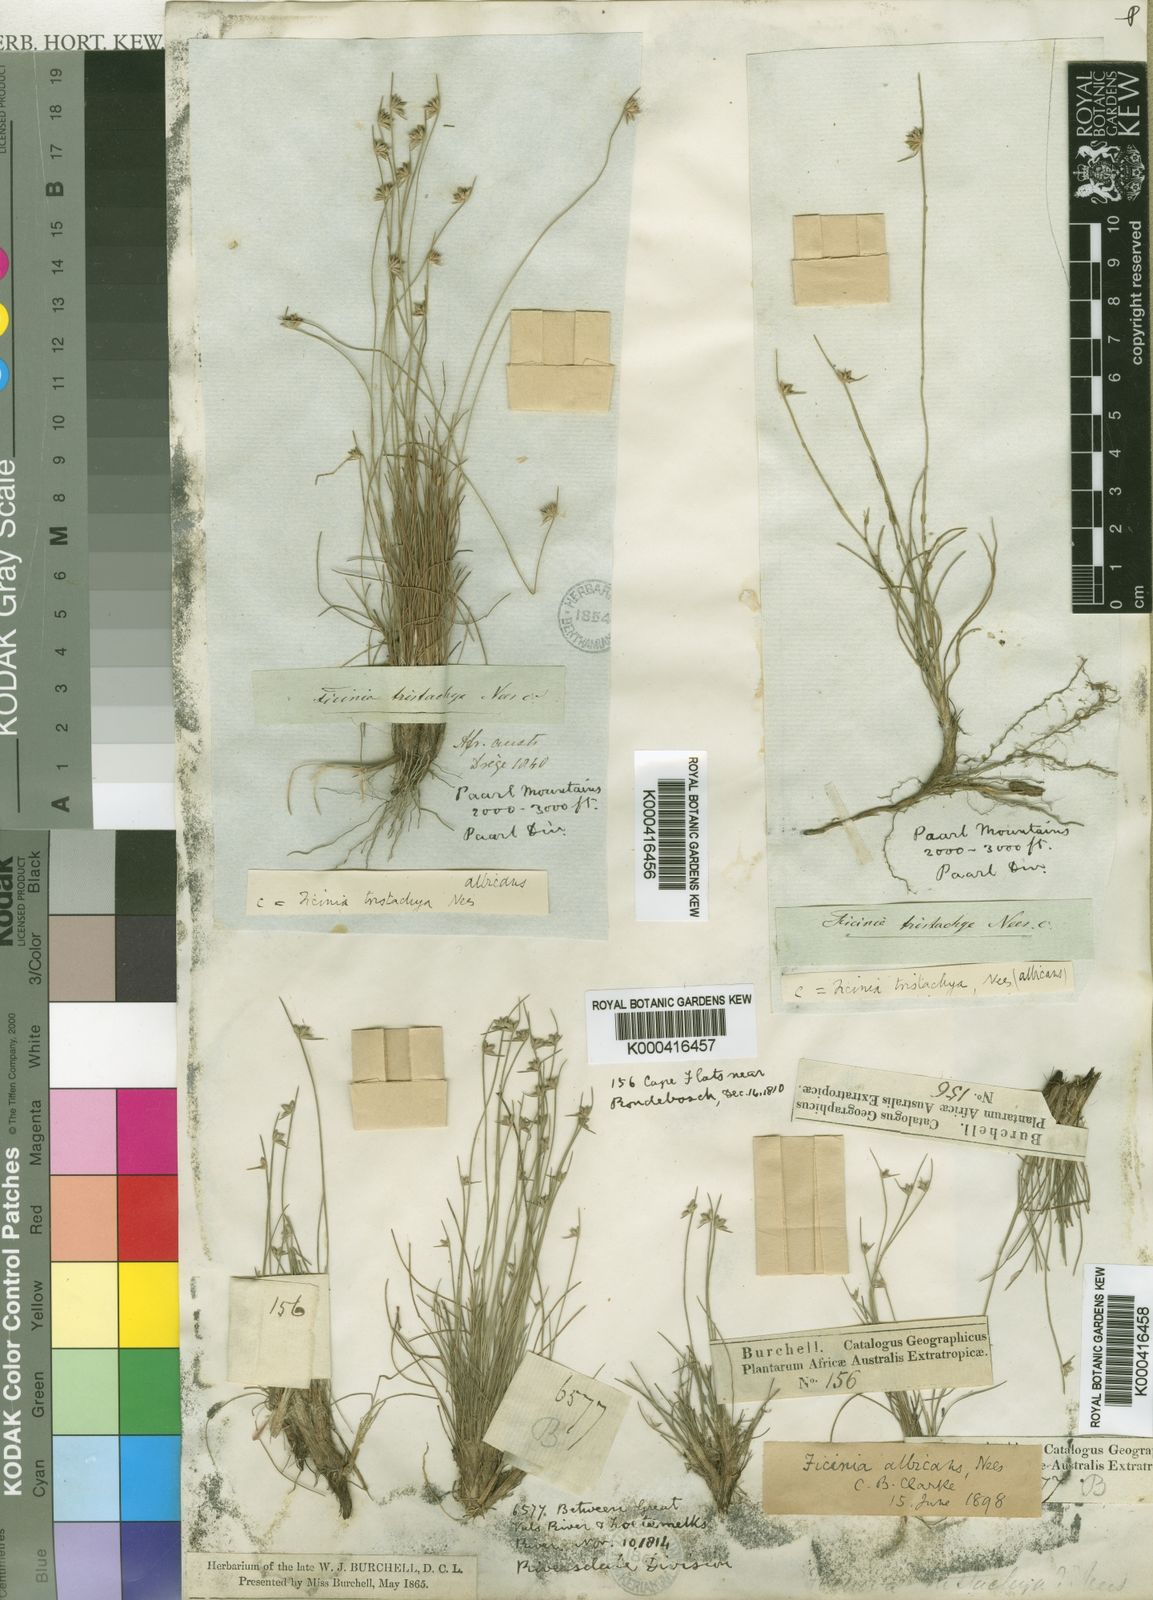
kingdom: Plantae
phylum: Tracheophyta
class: Liliopsida
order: Poales
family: Cyperaceae
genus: Ficinia
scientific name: Ficinia albicans
